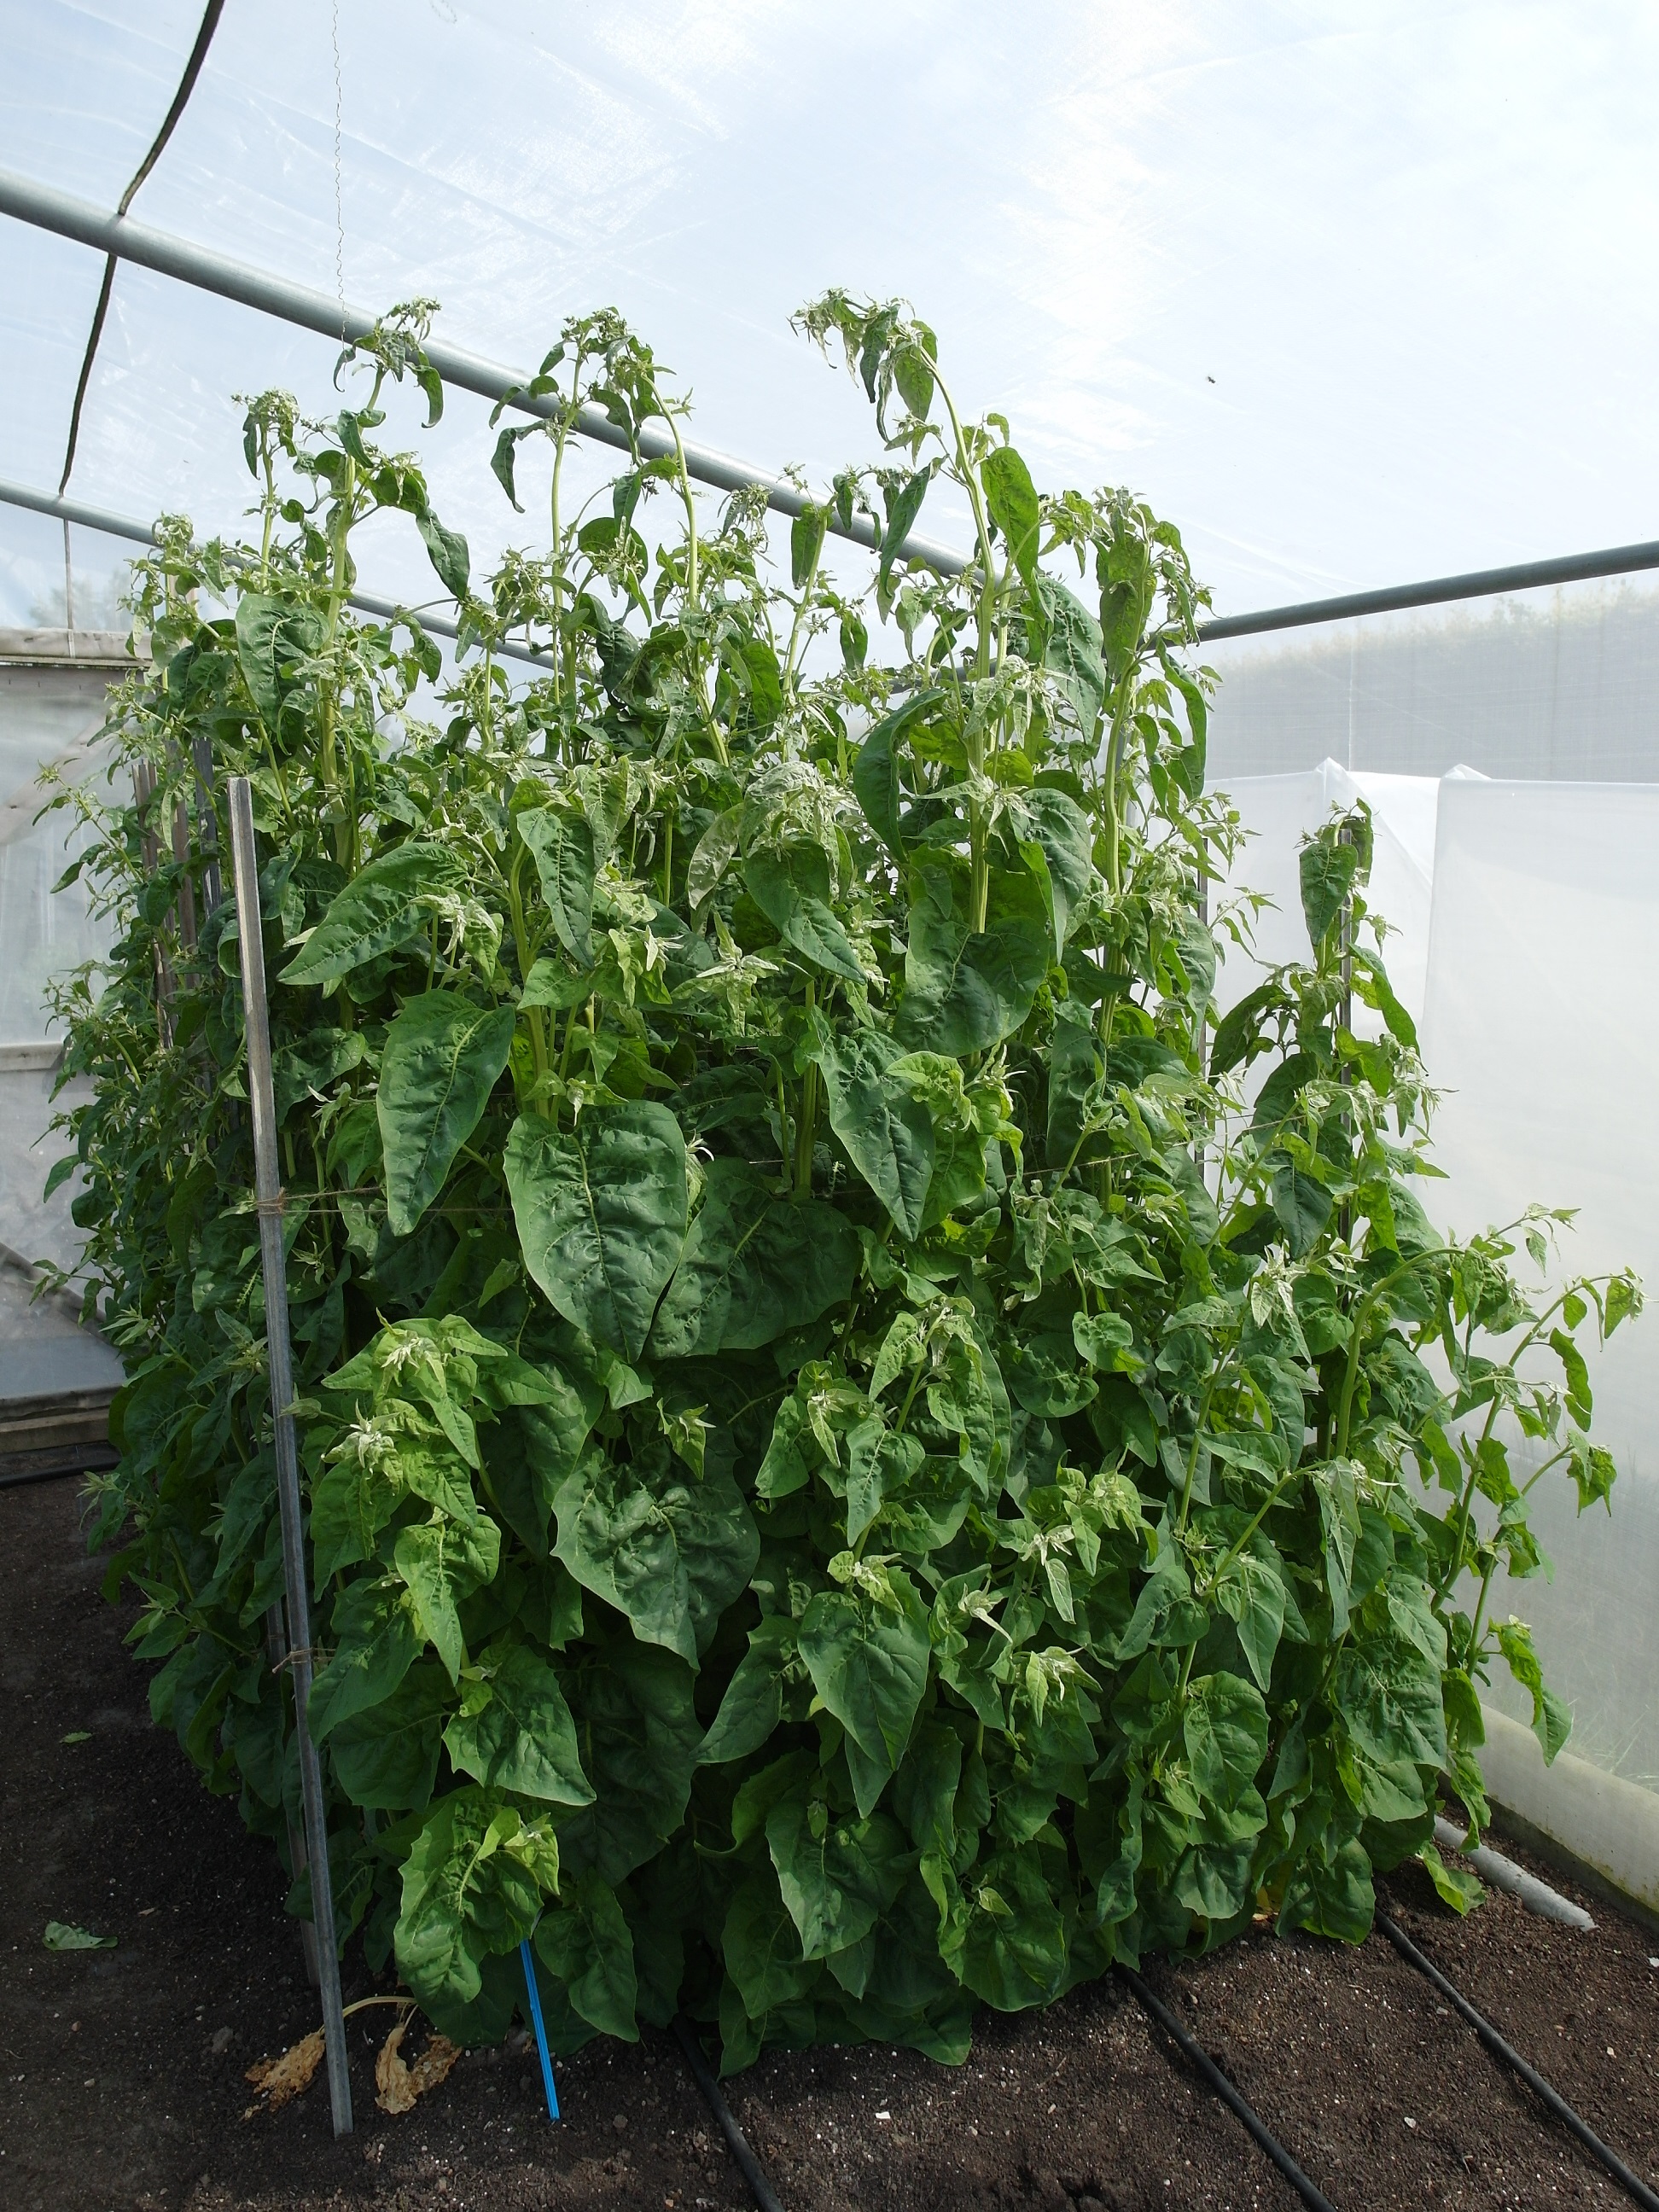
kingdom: Plantae
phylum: Tracheophyta
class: Magnoliopsida
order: Caryophyllales
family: Amaranthaceae
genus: Atriplex
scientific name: Atriplex hortensis
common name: Garden orache
